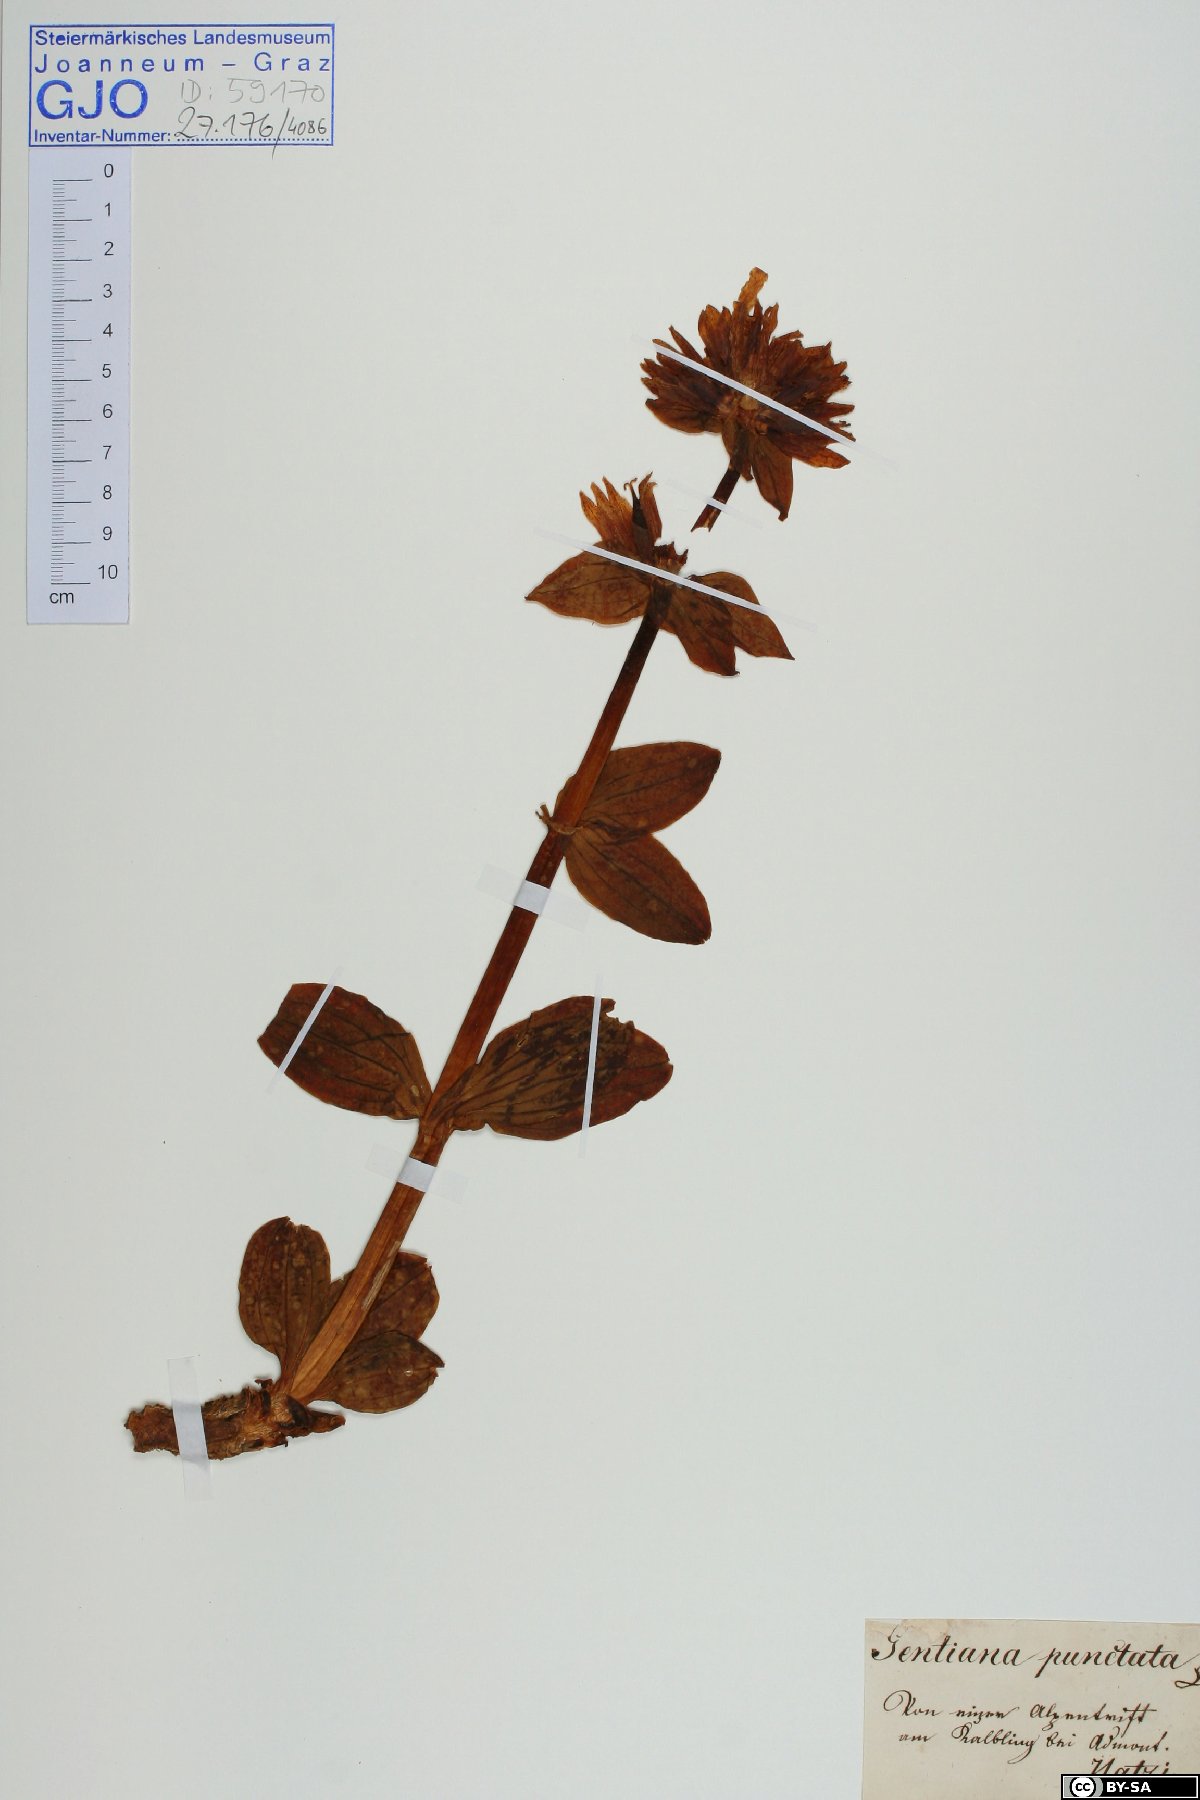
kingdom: Plantae
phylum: Tracheophyta
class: Magnoliopsida
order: Gentianales
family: Gentianaceae
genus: Gentiana
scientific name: Gentiana punctata
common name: Spotted gentian
